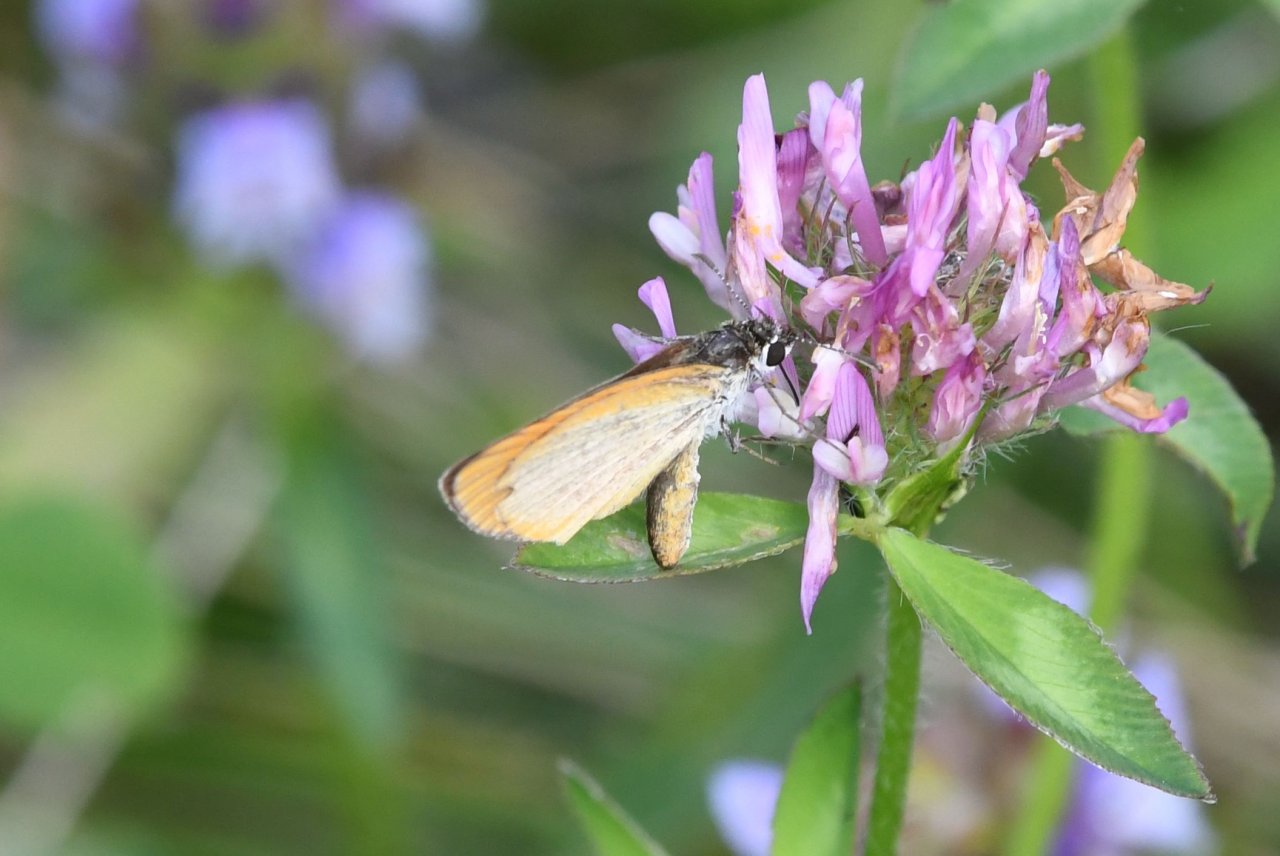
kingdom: Animalia
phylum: Arthropoda
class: Insecta
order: Lepidoptera
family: Hesperiidae
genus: Ancyloxypha
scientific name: Ancyloxypha numitor
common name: Least Skipper
